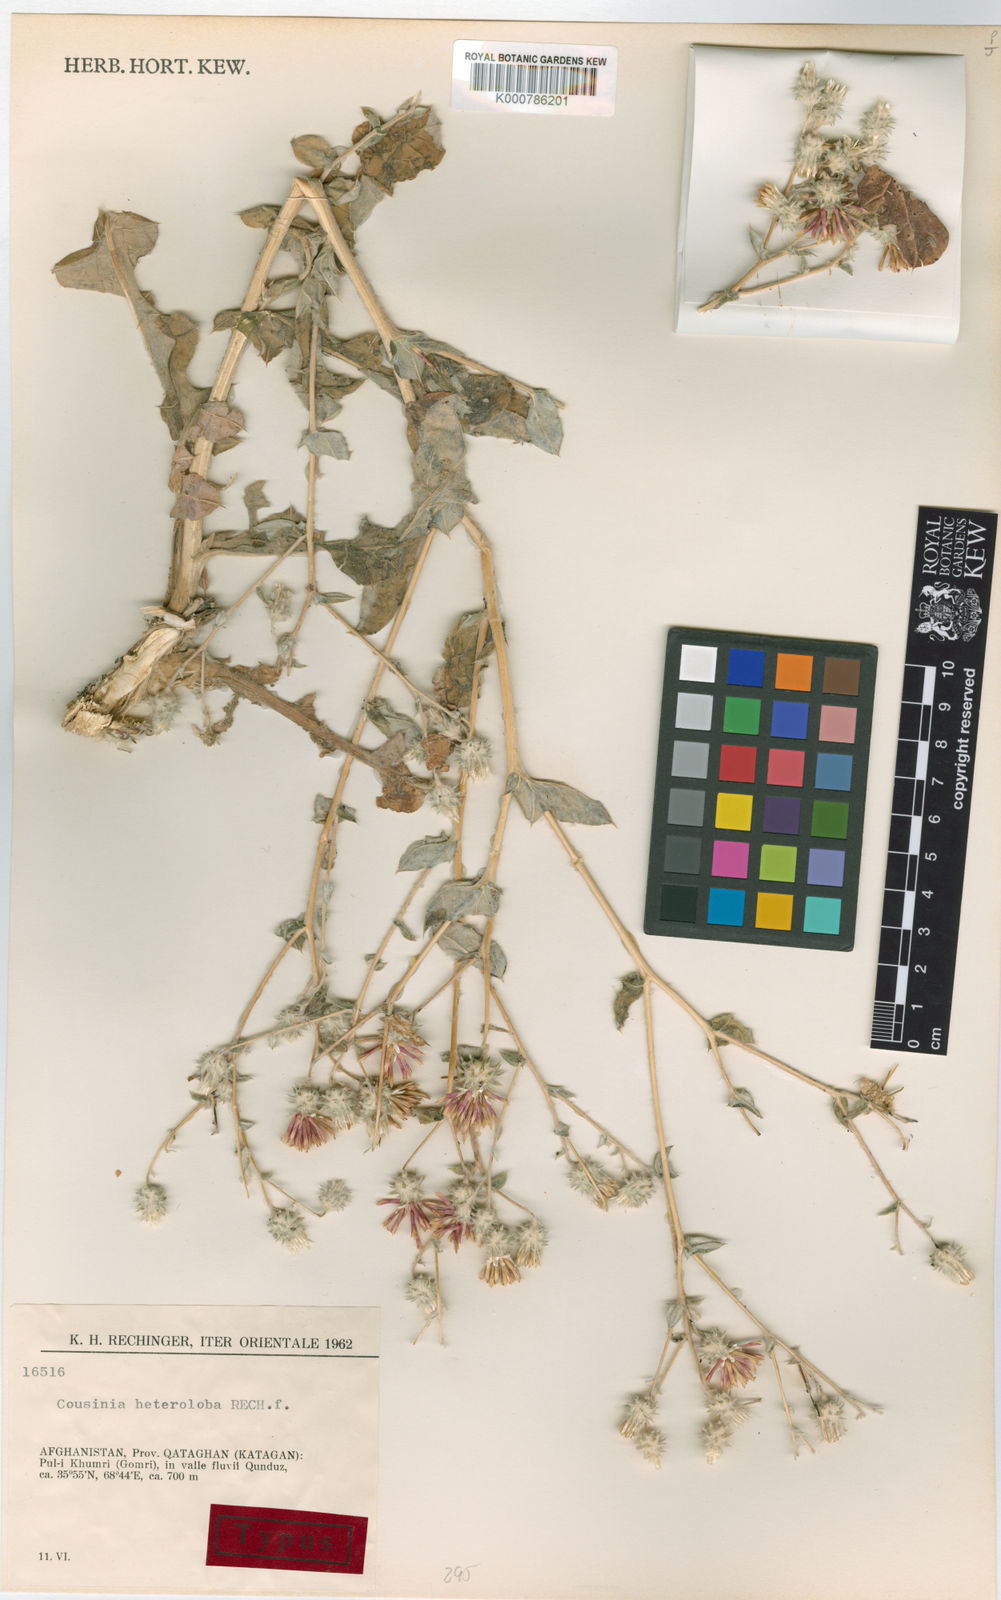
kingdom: Plantae
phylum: Tracheophyta
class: Magnoliopsida
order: Asterales
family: Asteraceae
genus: Cousinia
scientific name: Cousinia heteroloba
